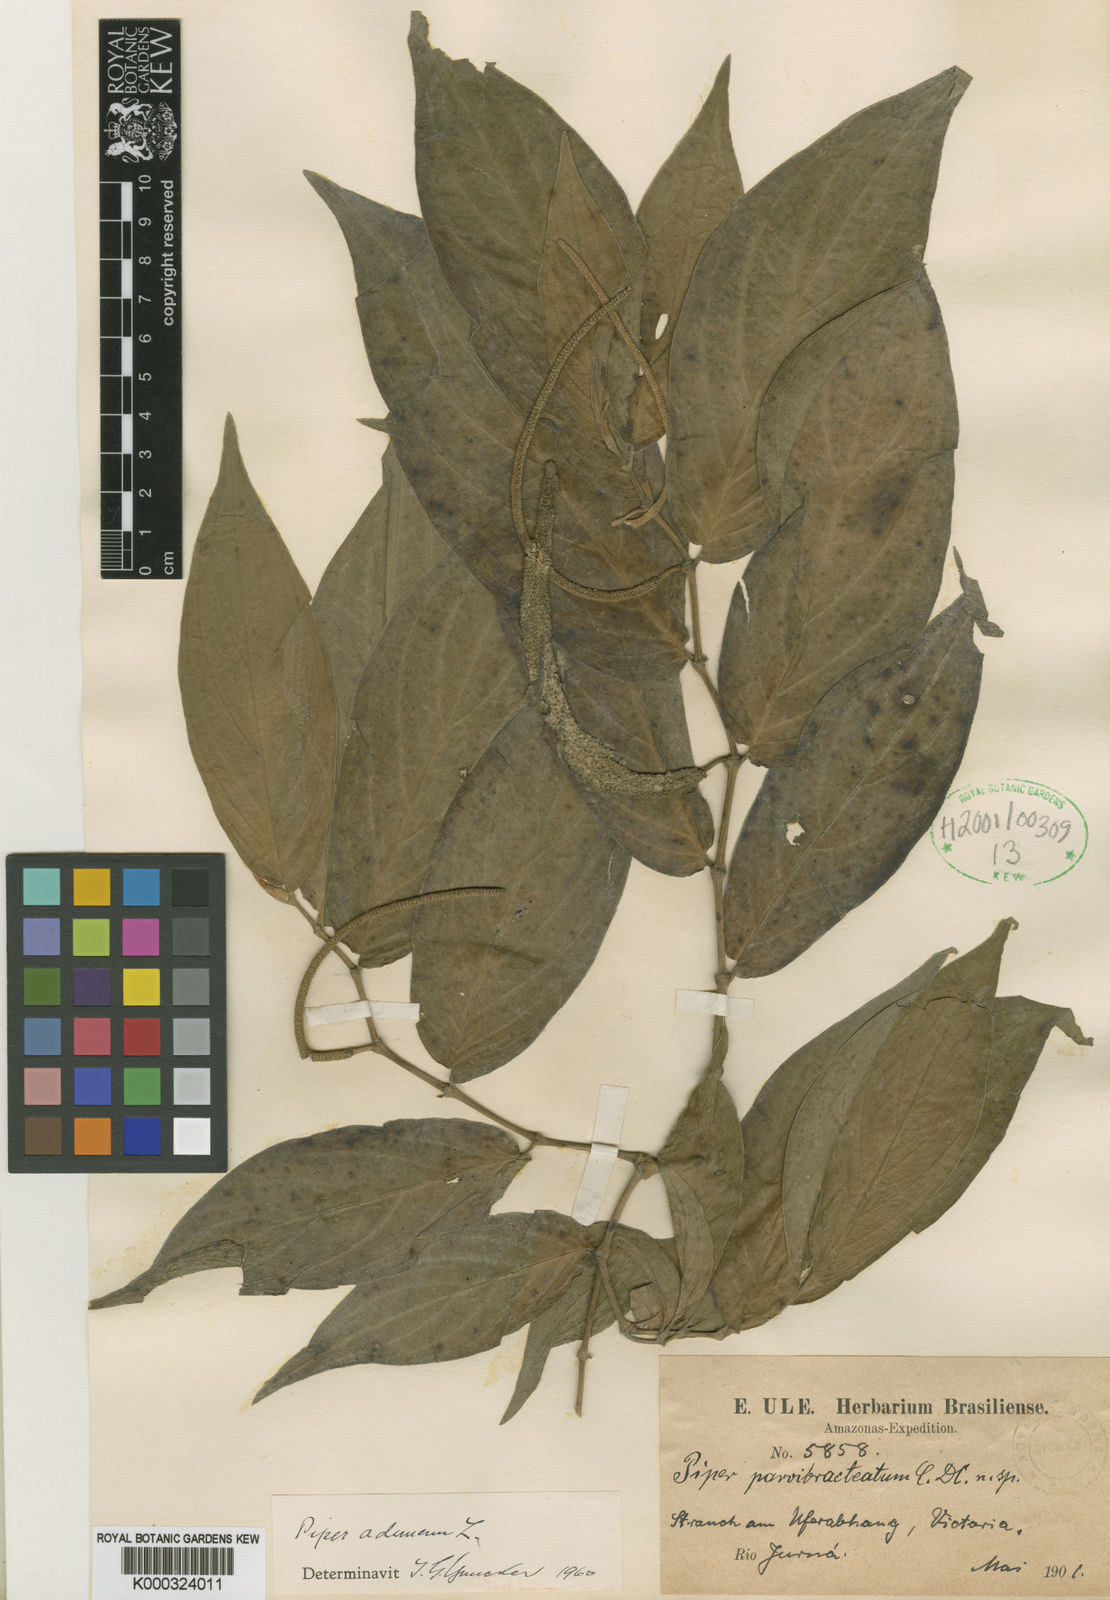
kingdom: Plantae
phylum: Tracheophyta
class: Magnoliopsida
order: Piperales
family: Piperaceae
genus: Piper
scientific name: Piper aduncum
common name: Spiked pepper
